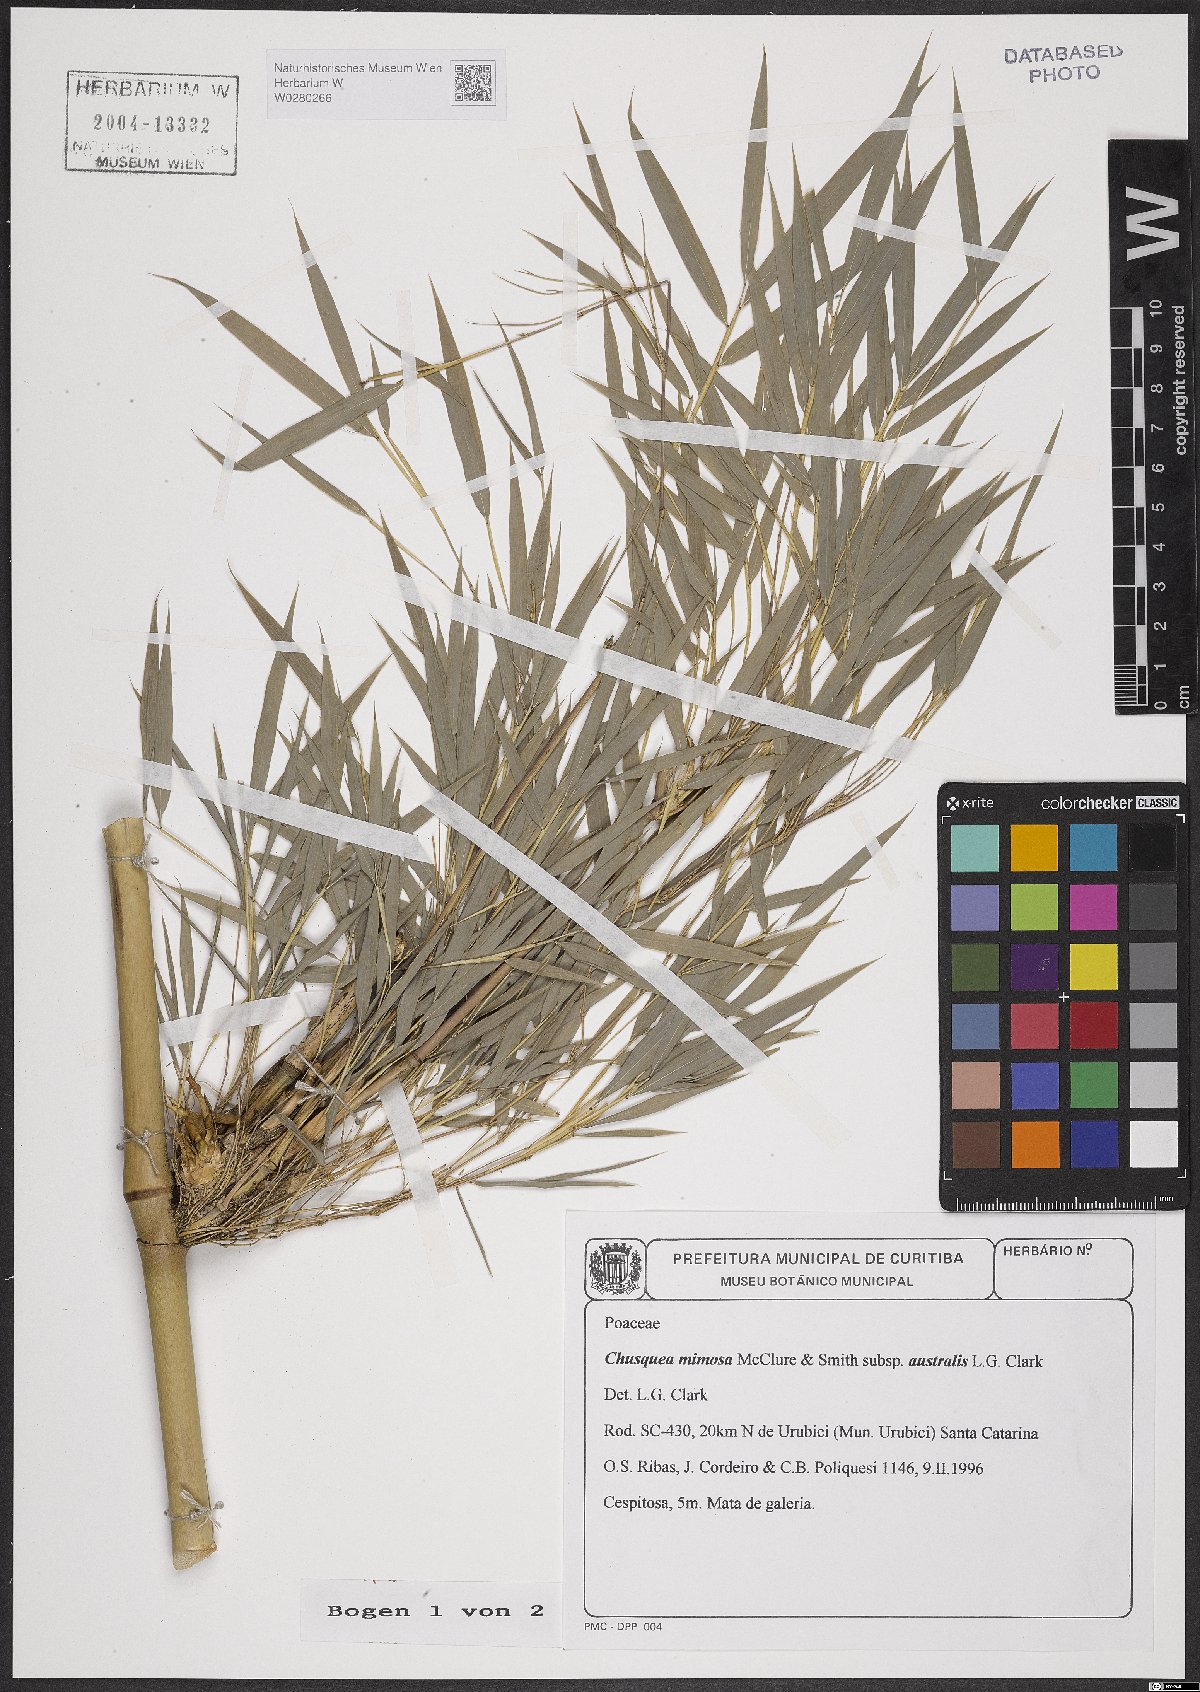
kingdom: Plantae
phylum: Tracheophyta
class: Liliopsida
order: Poales
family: Poaceae
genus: Chusquea
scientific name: Chusquea mimosa
